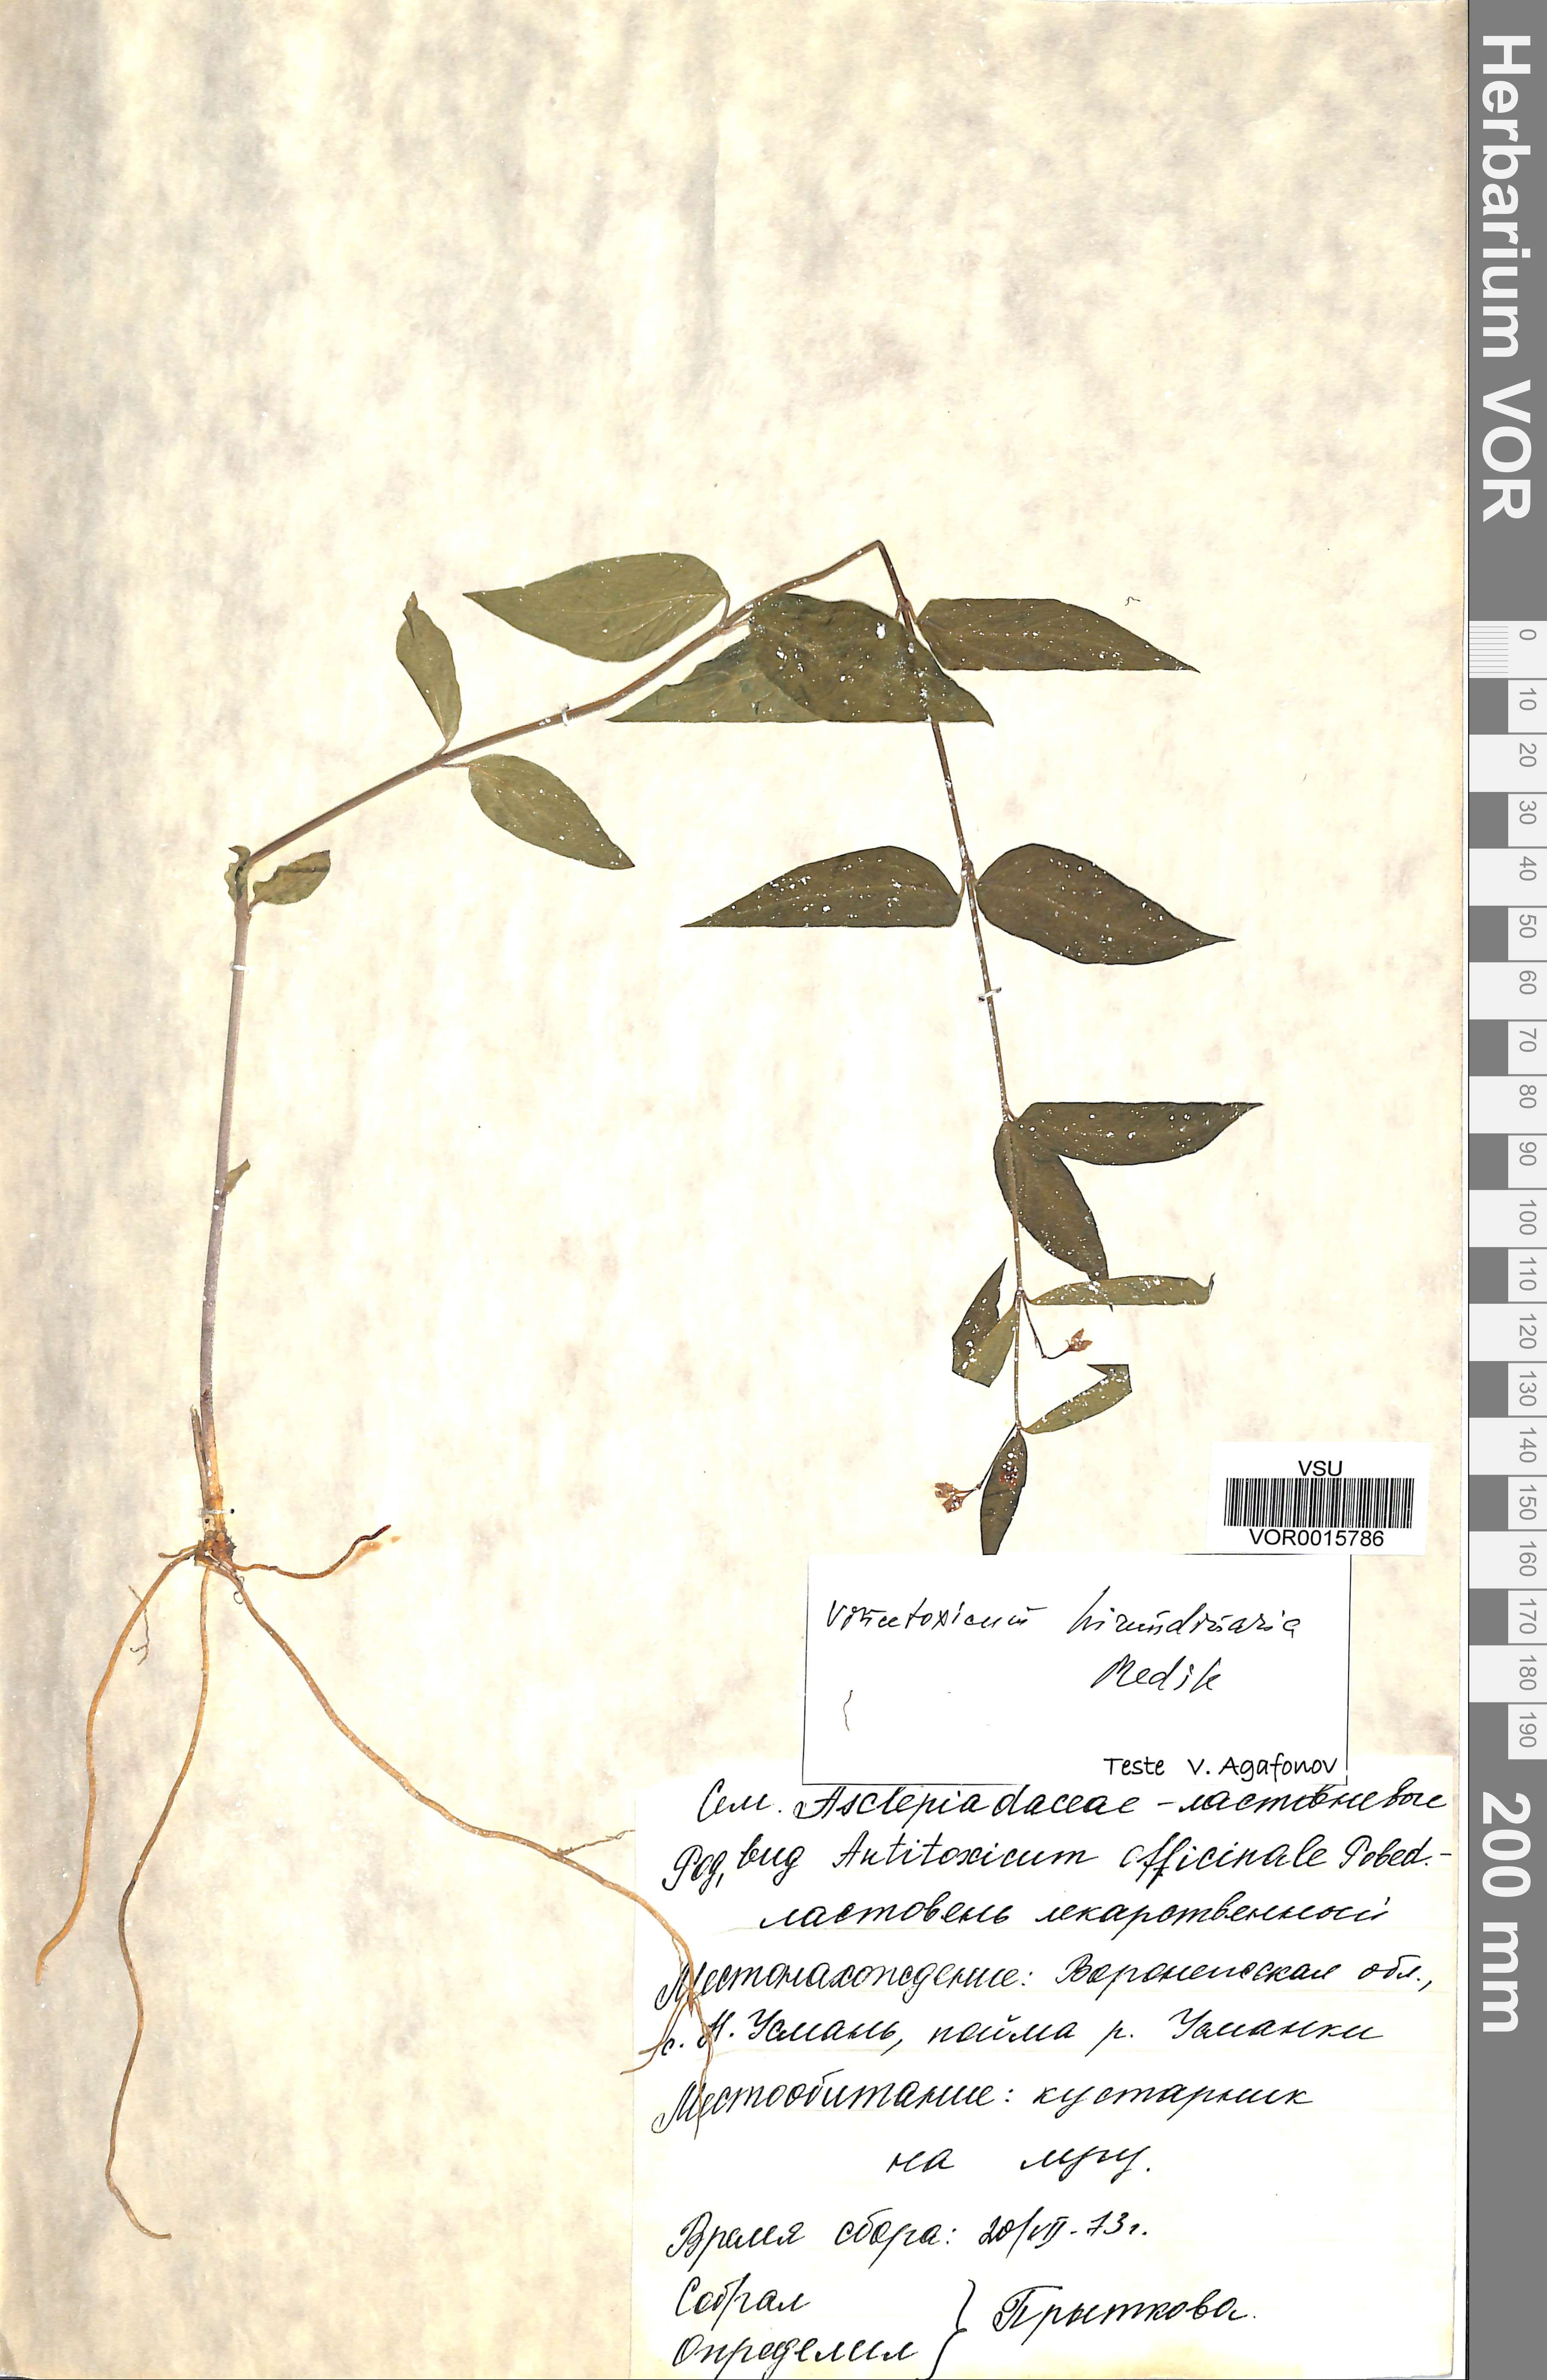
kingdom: Plantae
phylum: Tracheophyta
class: Magnoliopsida
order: Gentianales
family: Apocynaceae
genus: Vincetoxicum
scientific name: Vincetoxicum hirundinaria
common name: White swallowwort
